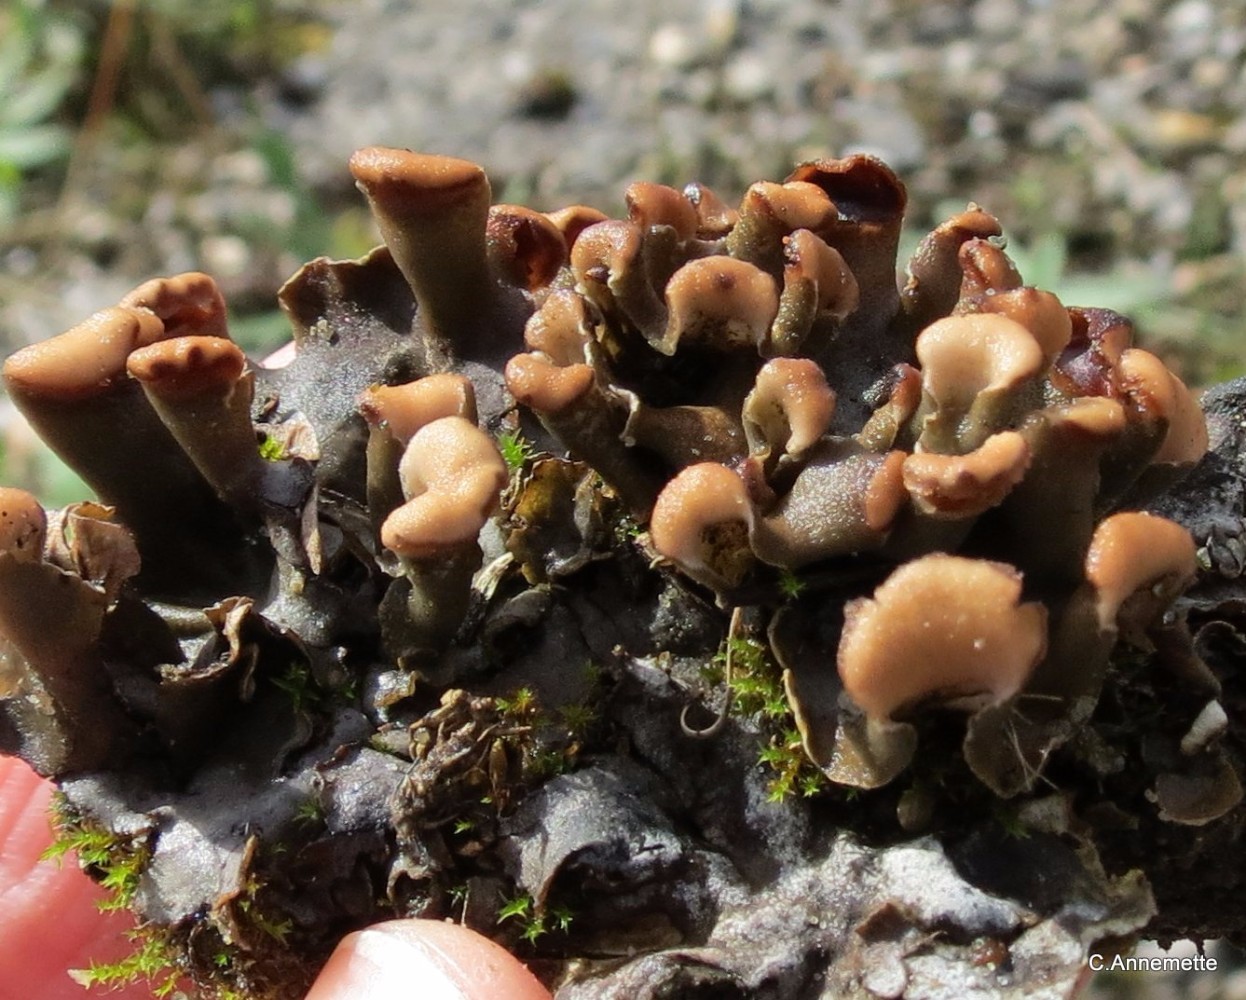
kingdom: Fungi
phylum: Ascomycota
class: Lecanoromycetes
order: Peltigerales
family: Peltigeraceae
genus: Peltigera
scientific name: Peltigera didactyla
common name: liden skjoldlav
